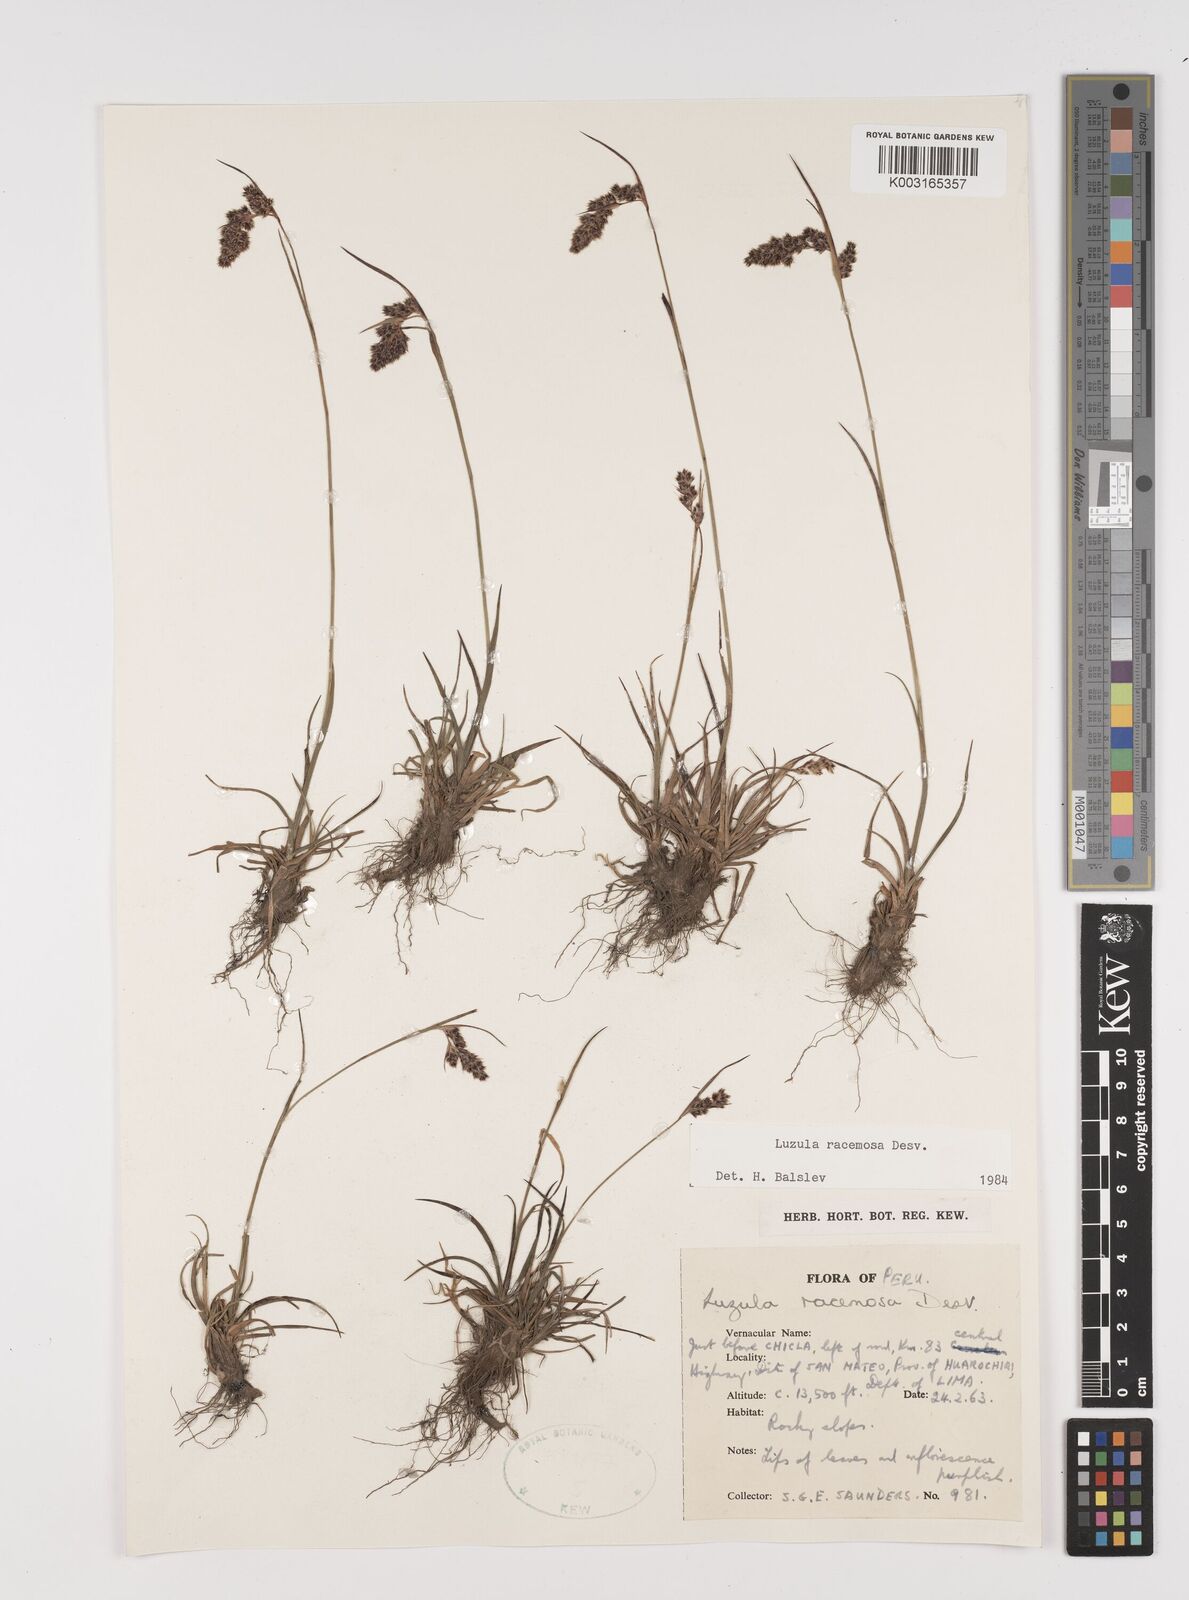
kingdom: Plantae
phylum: Tracheophyta
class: Liliopsida
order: Poales
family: Juncaceae
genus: Luzula
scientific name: Luzula racemosa
